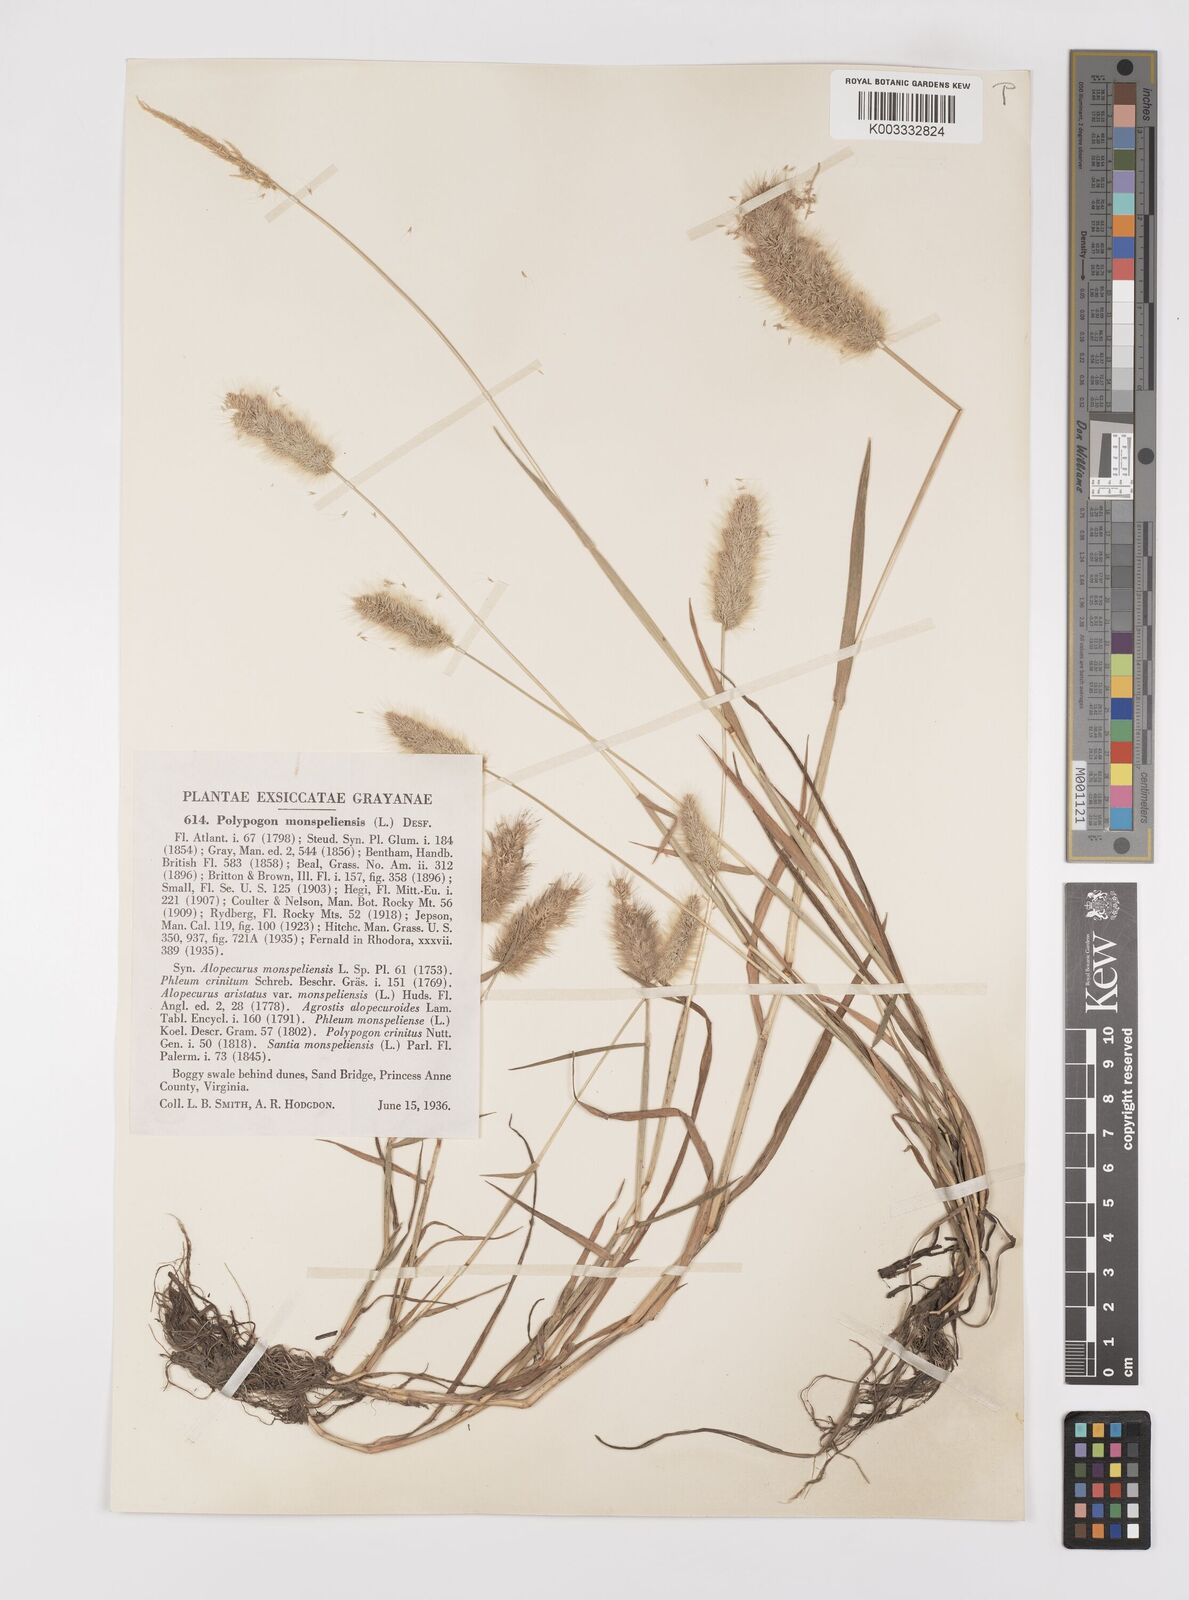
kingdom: Plantae
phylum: Tracheophyta
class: Liliopsida
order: Poales
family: Poaceae
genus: Polypogon
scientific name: Polypogon monspeliensis
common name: Annual rabbitsfoot grass
